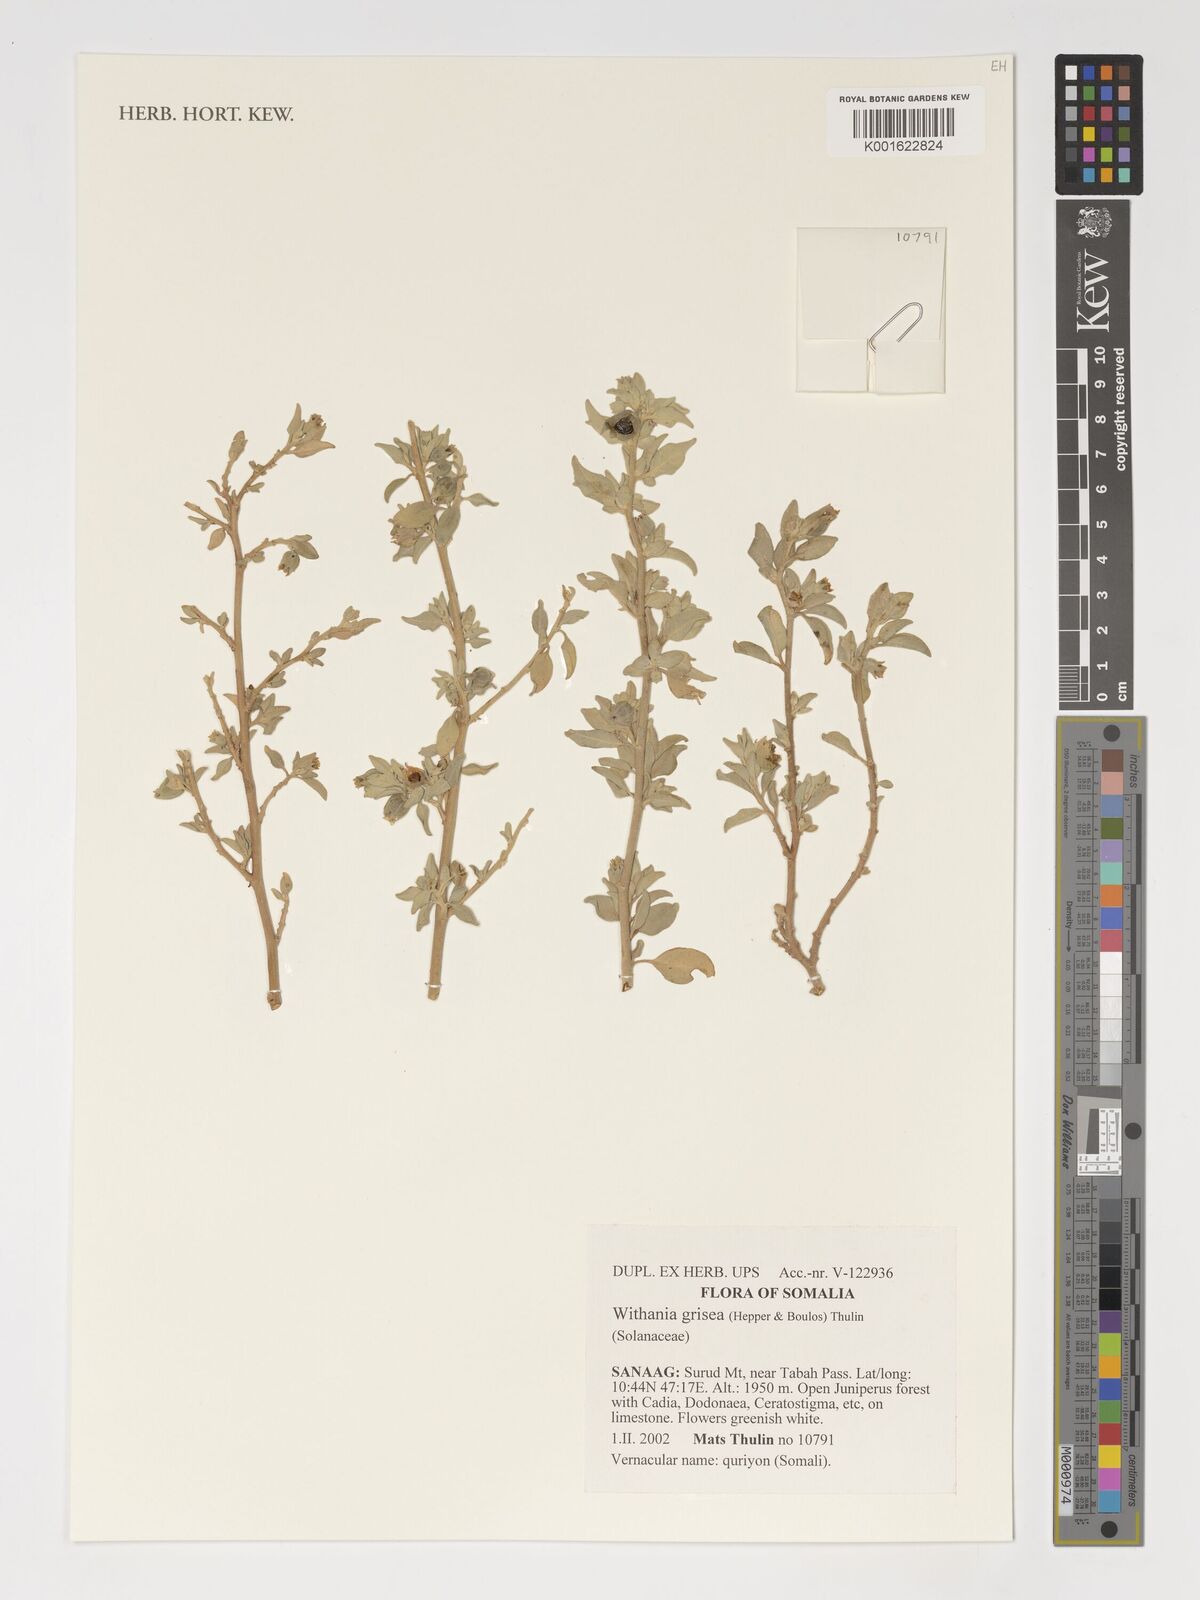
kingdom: Plantae
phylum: Tracheophyta
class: Magnoliopsida
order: Solanales
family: Solanaceae
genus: Withania
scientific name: Withania grisea
